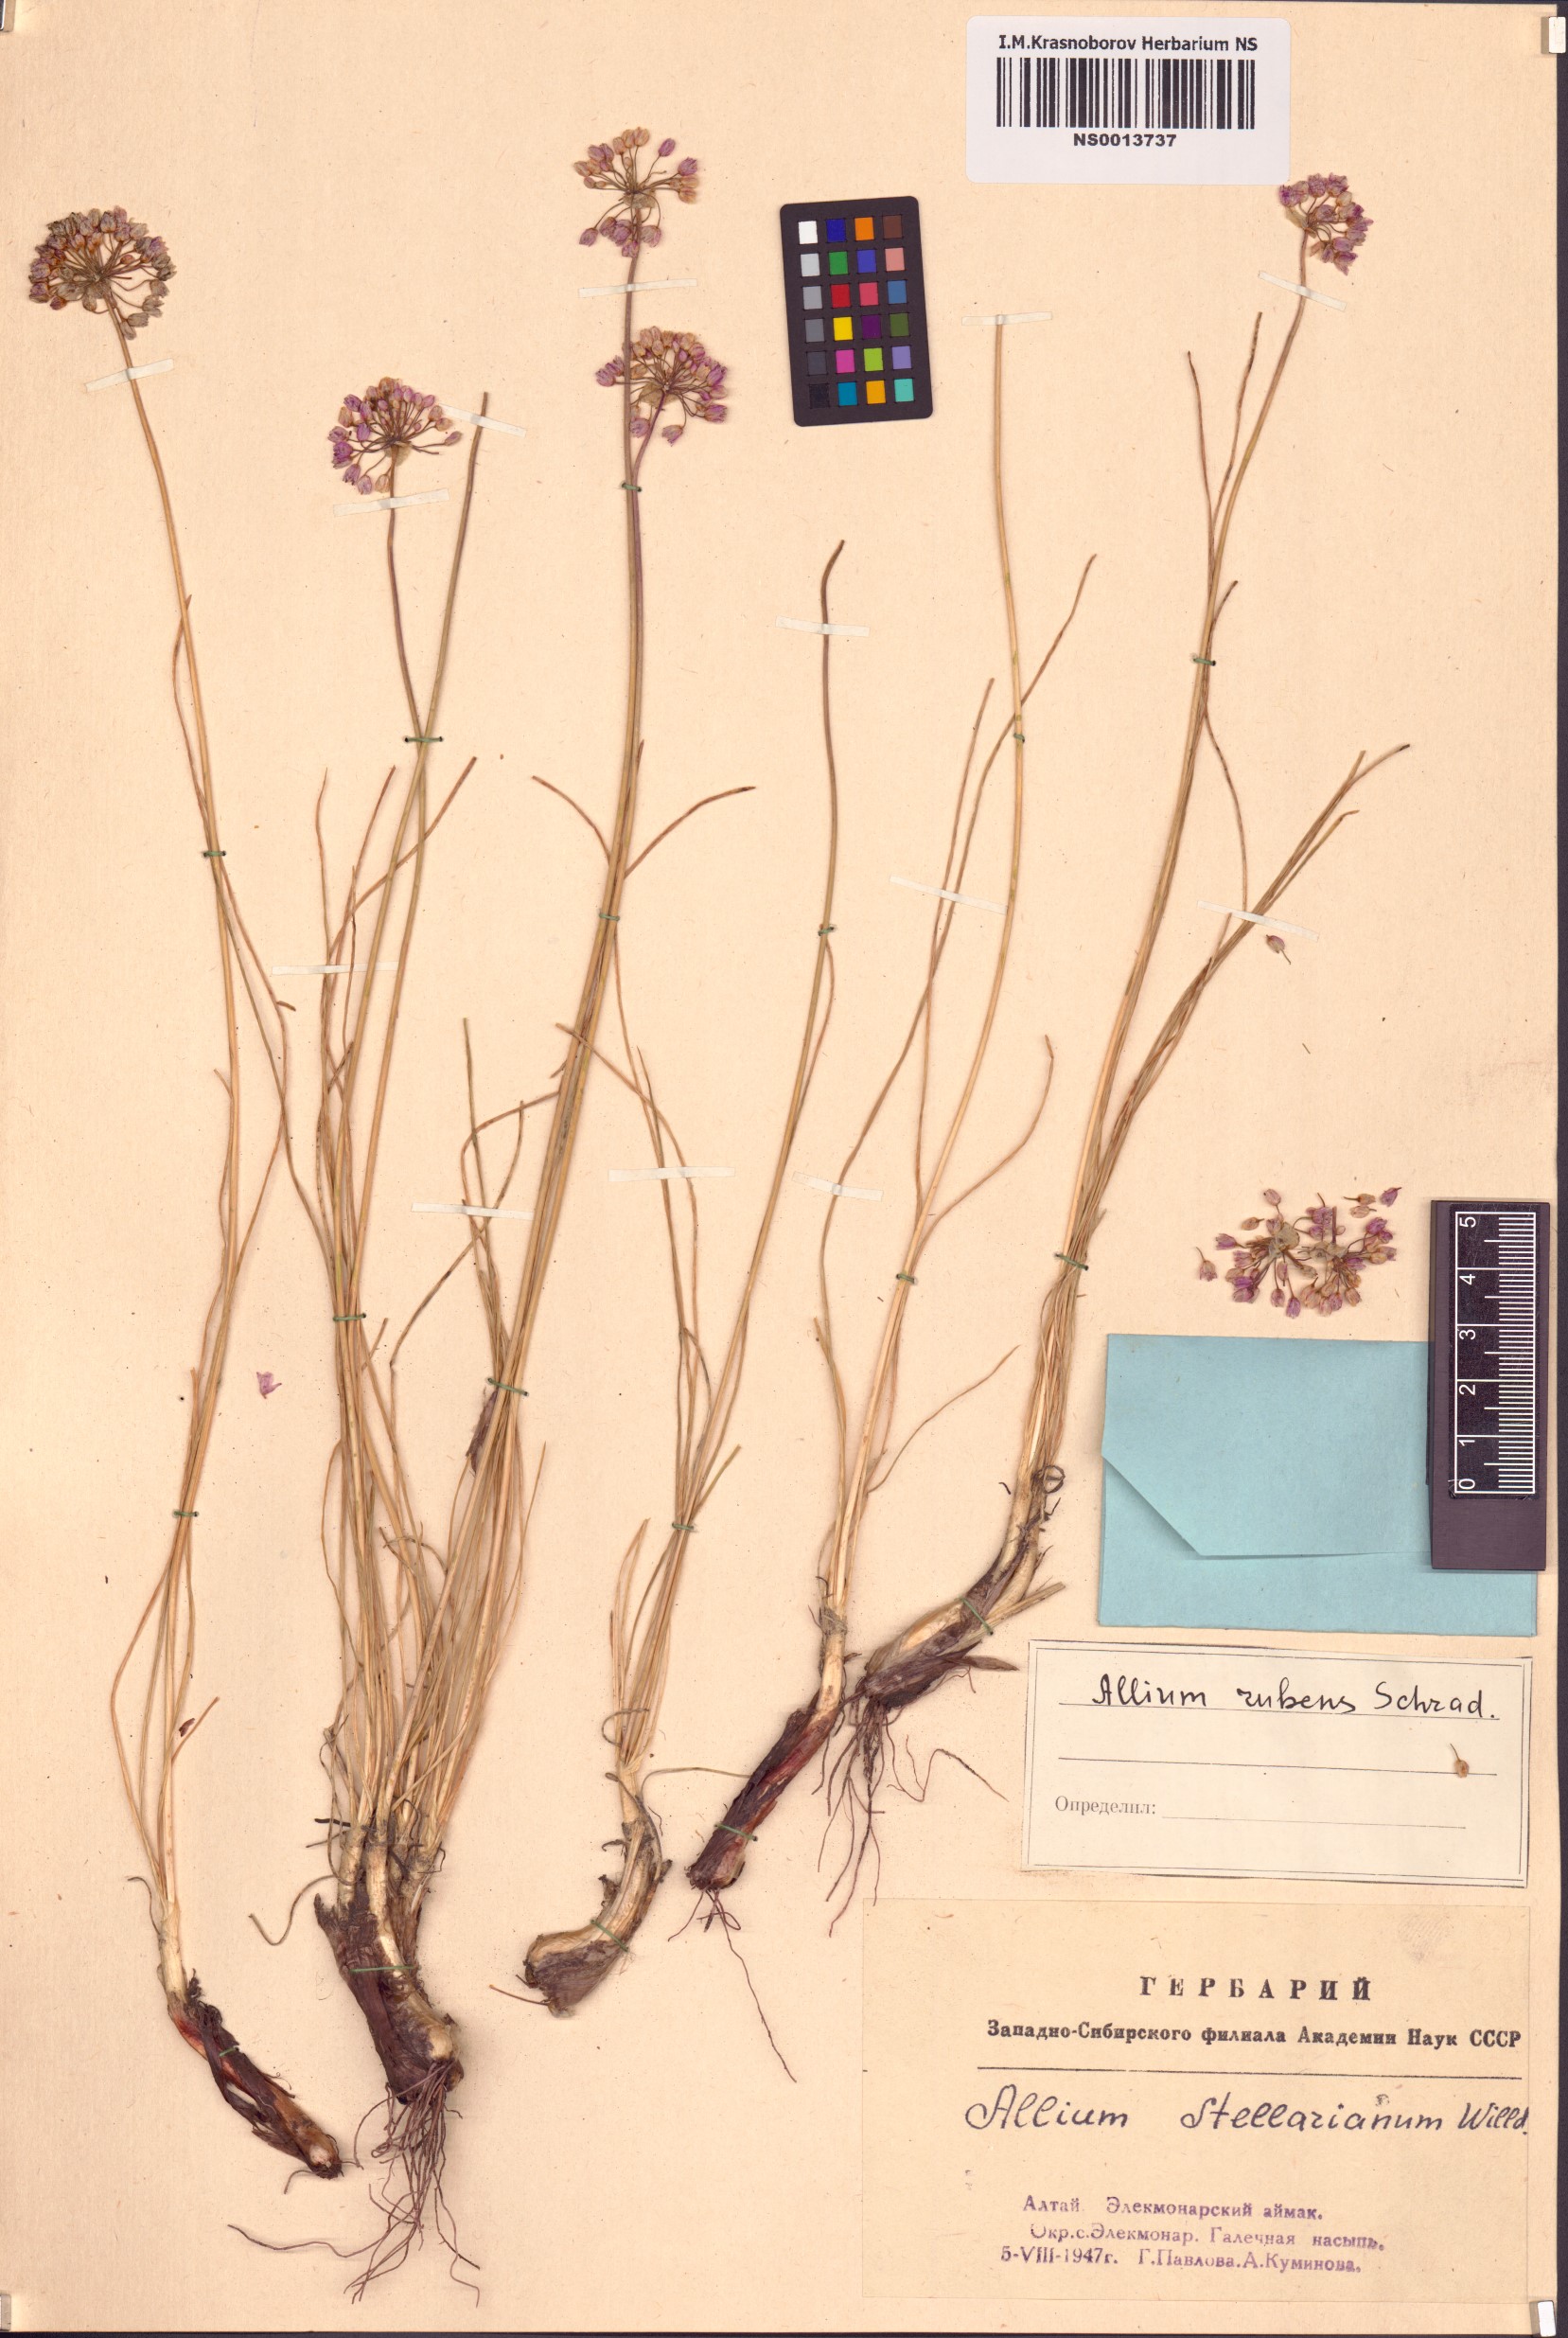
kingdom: Plantae
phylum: Tracheophyta
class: Liliopsida
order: Asparagales
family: Amaryllidaceae
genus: Allium
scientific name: Allium rubens
